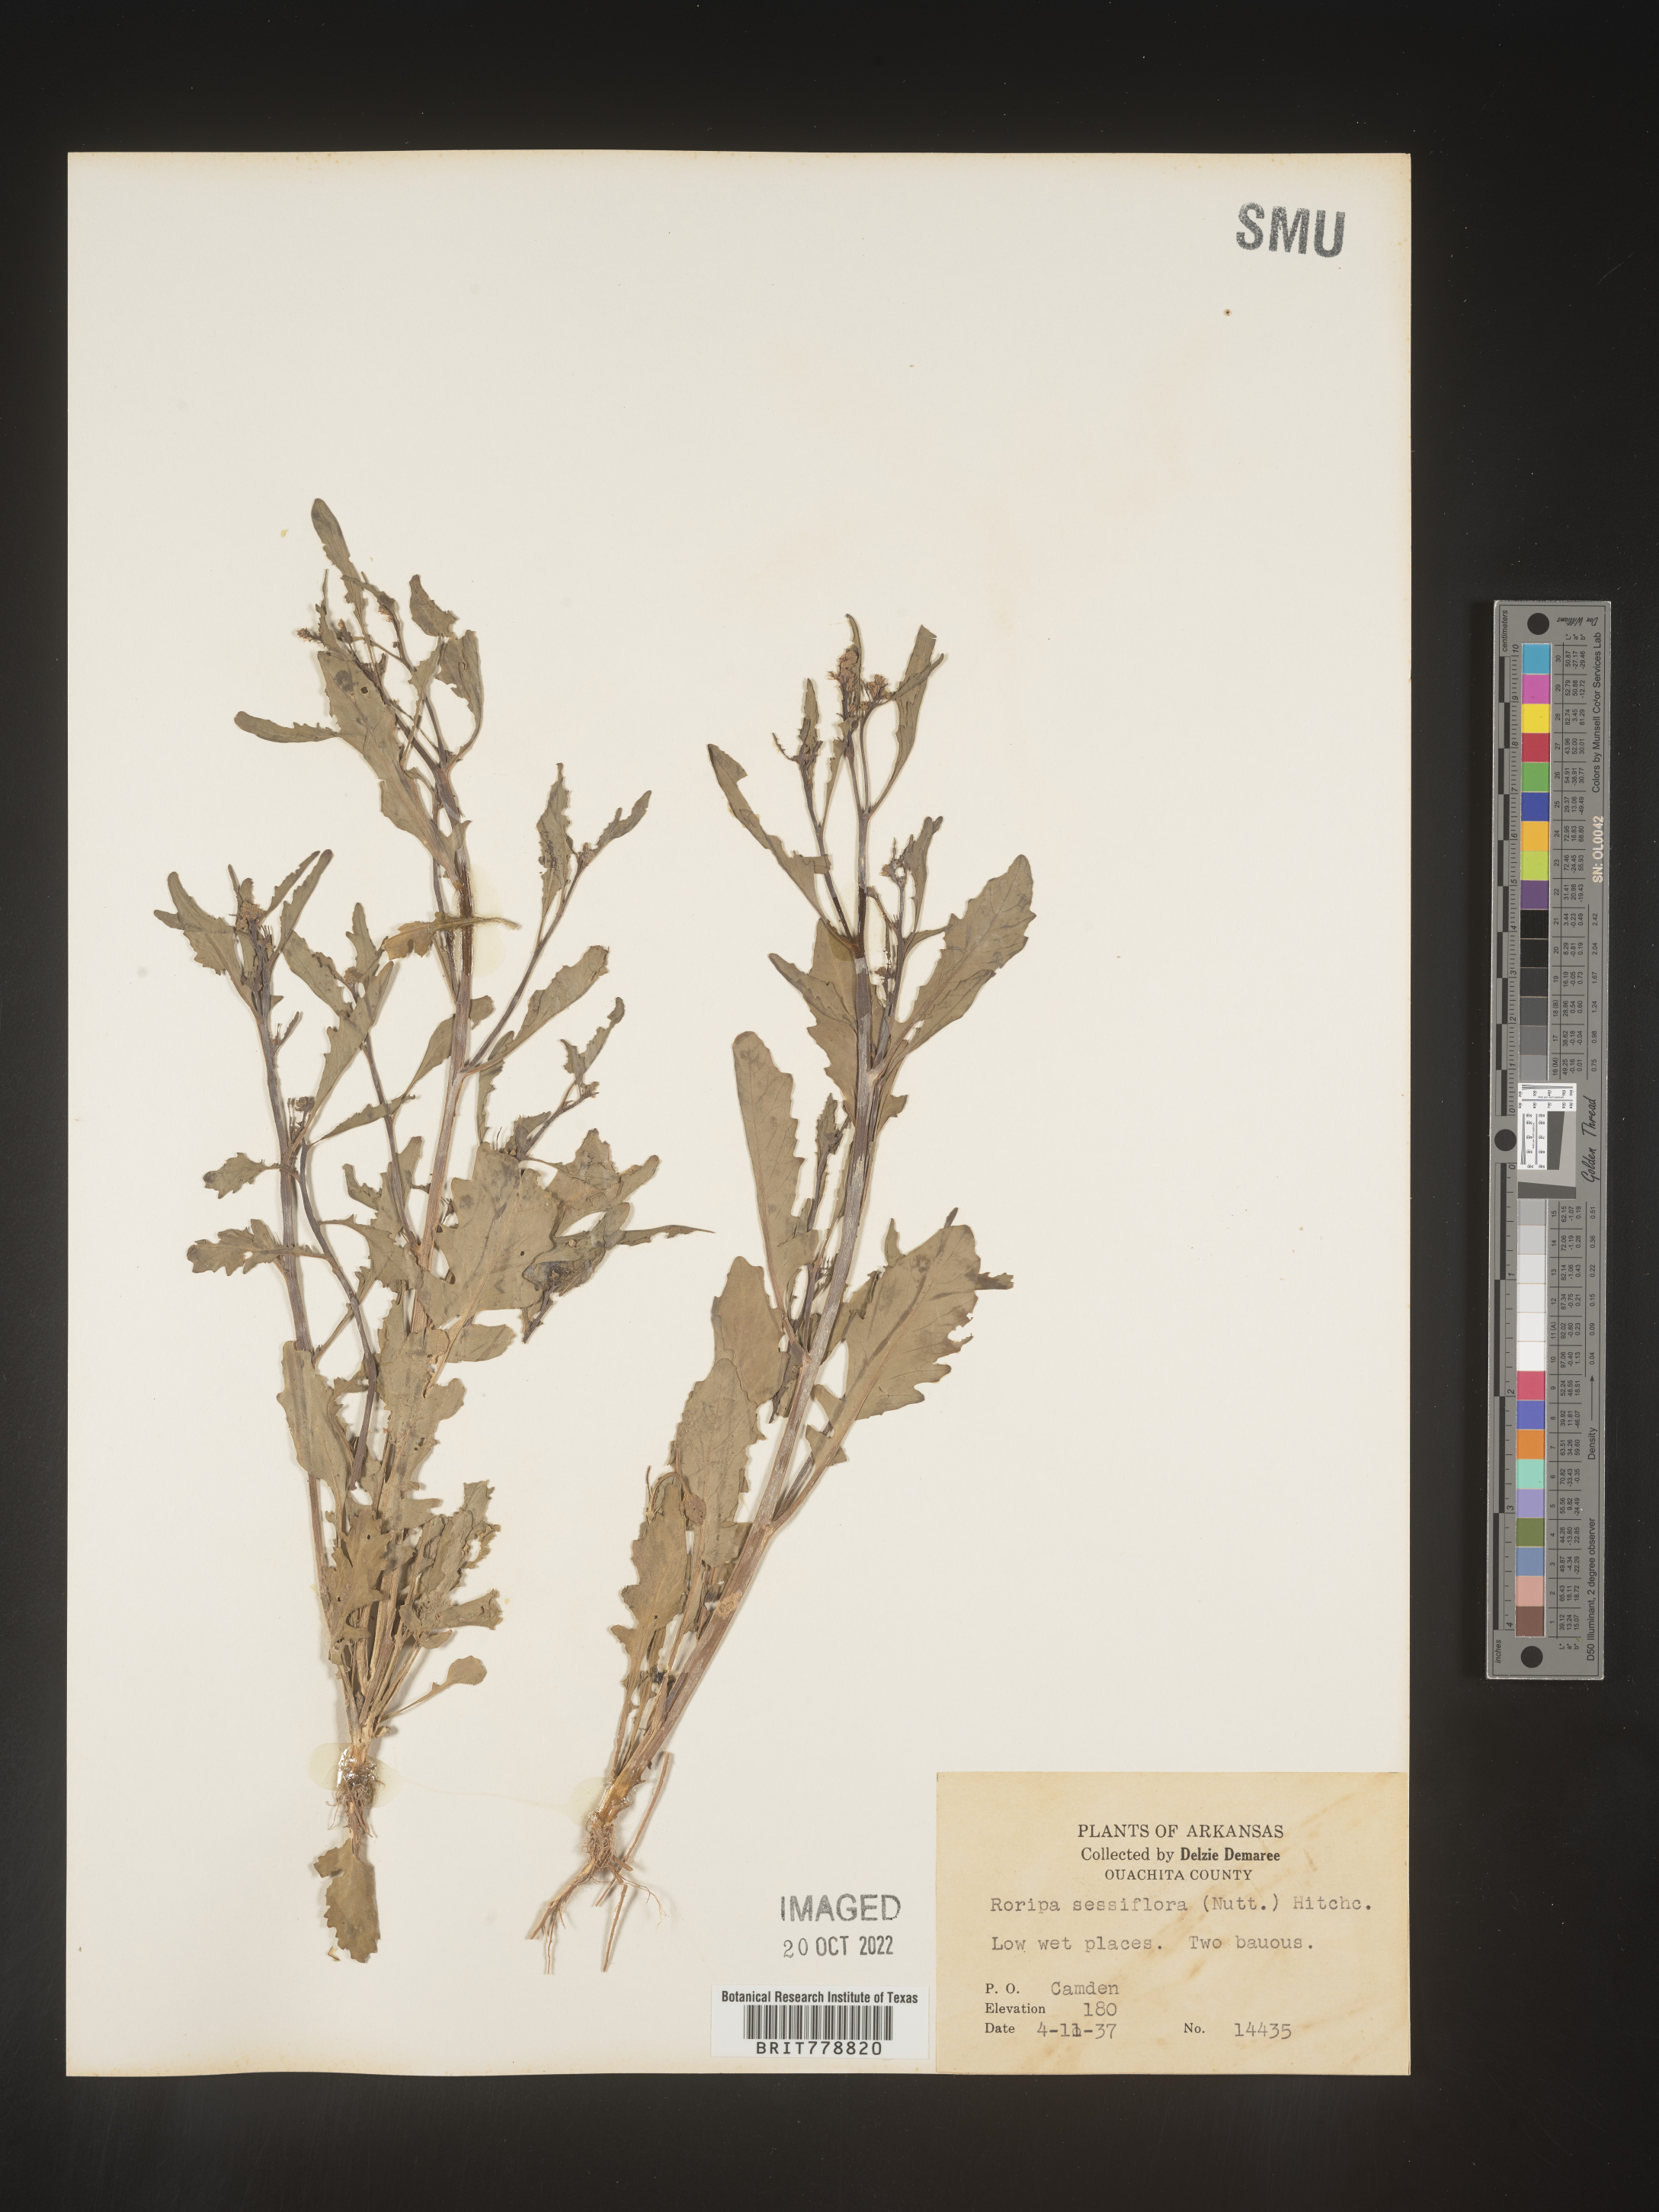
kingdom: Plantae
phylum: Tracheophyta
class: Magnoliopsida
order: Brassicales
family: Brassicaceae
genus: Rorippa
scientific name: Rorippa sessiliflora
